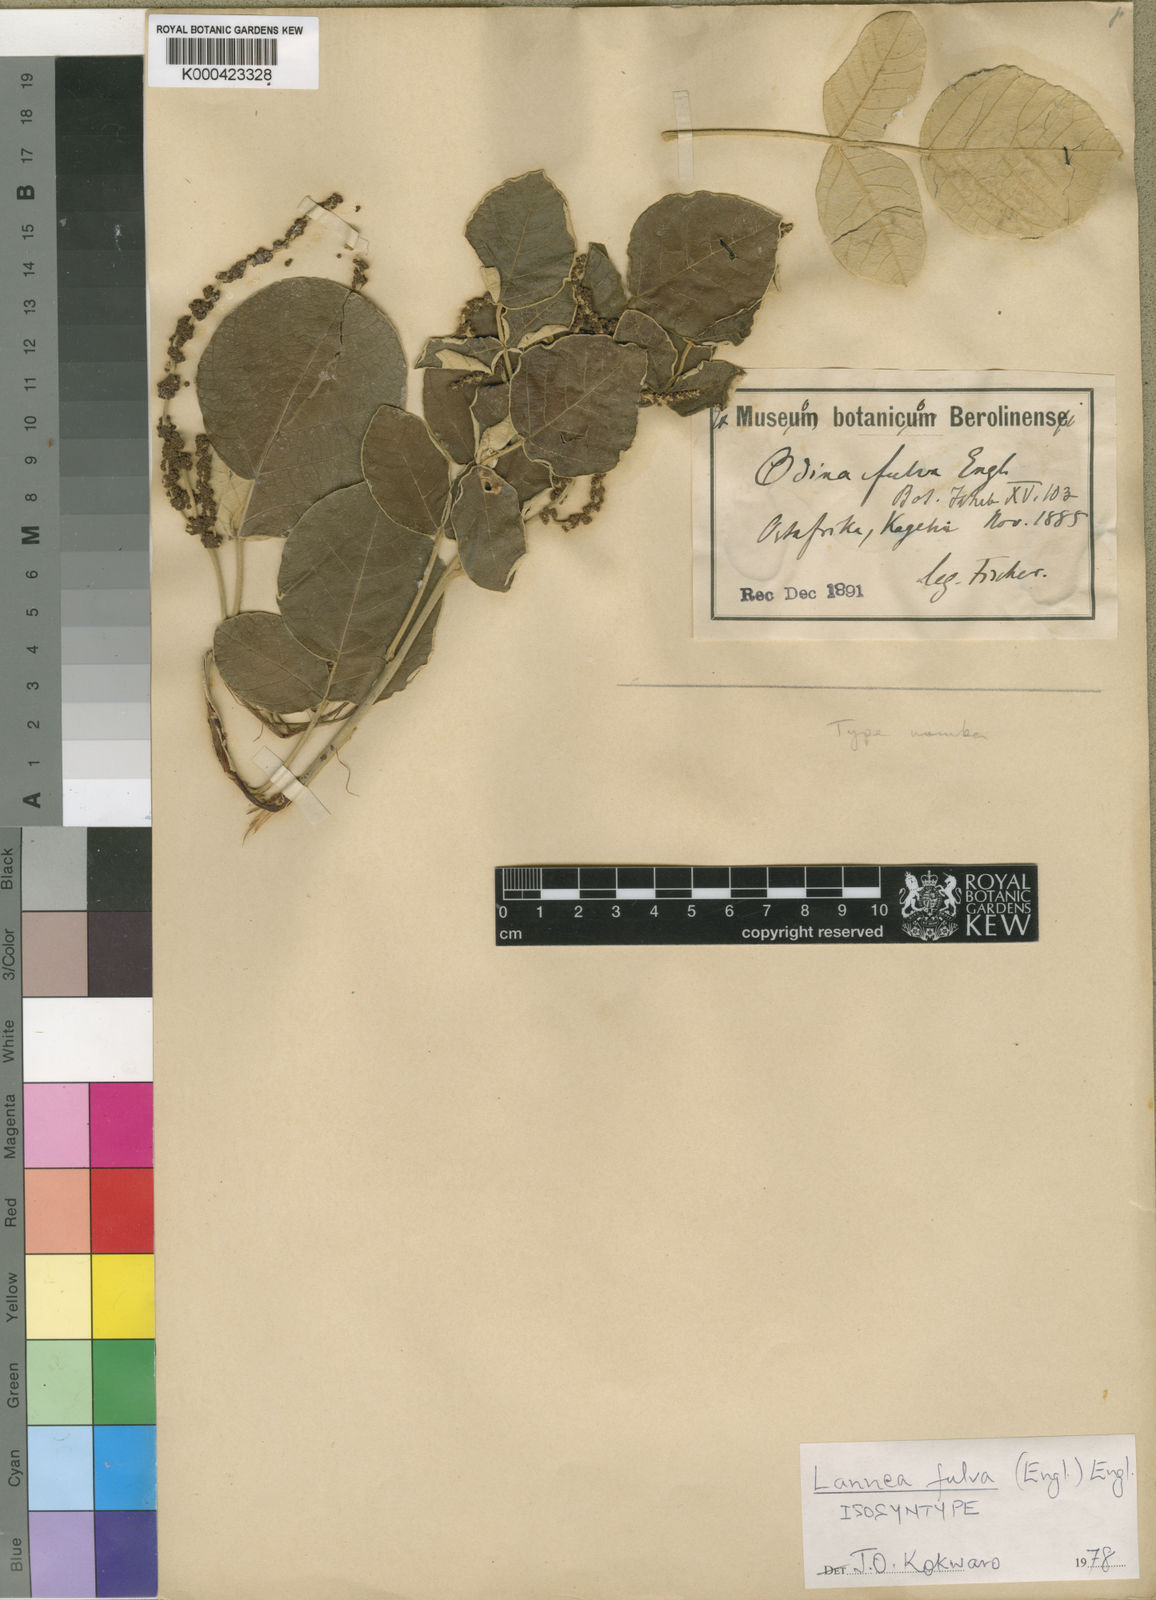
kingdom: Plantae
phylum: Tracheophyta
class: Magnoliopsida
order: Sapindales
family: Anacardiaceae
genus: Lannea
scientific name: Lannea fulva
